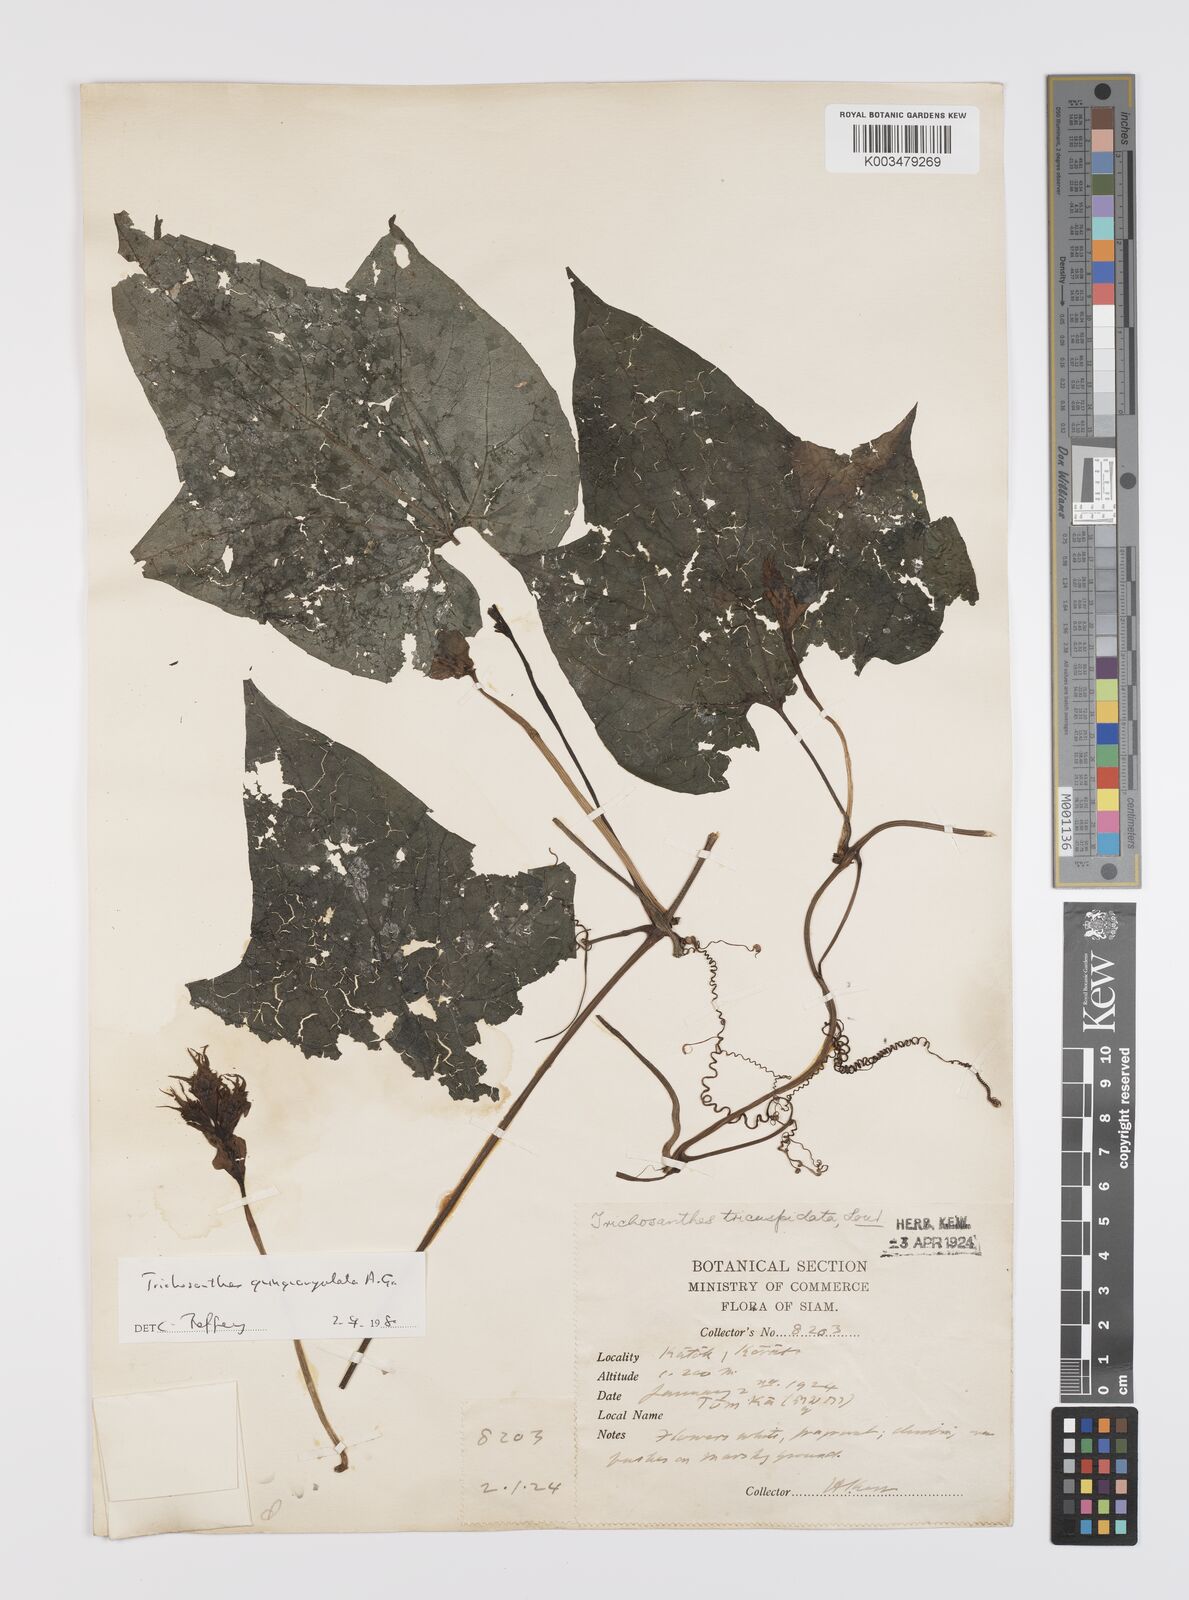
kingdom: Plantae
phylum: Tracheophyta
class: Magnoliopsida
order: Cucurbitales
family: Cucurbitaceae
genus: Trichosanthes
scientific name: Trichosanthes quinquangulata
